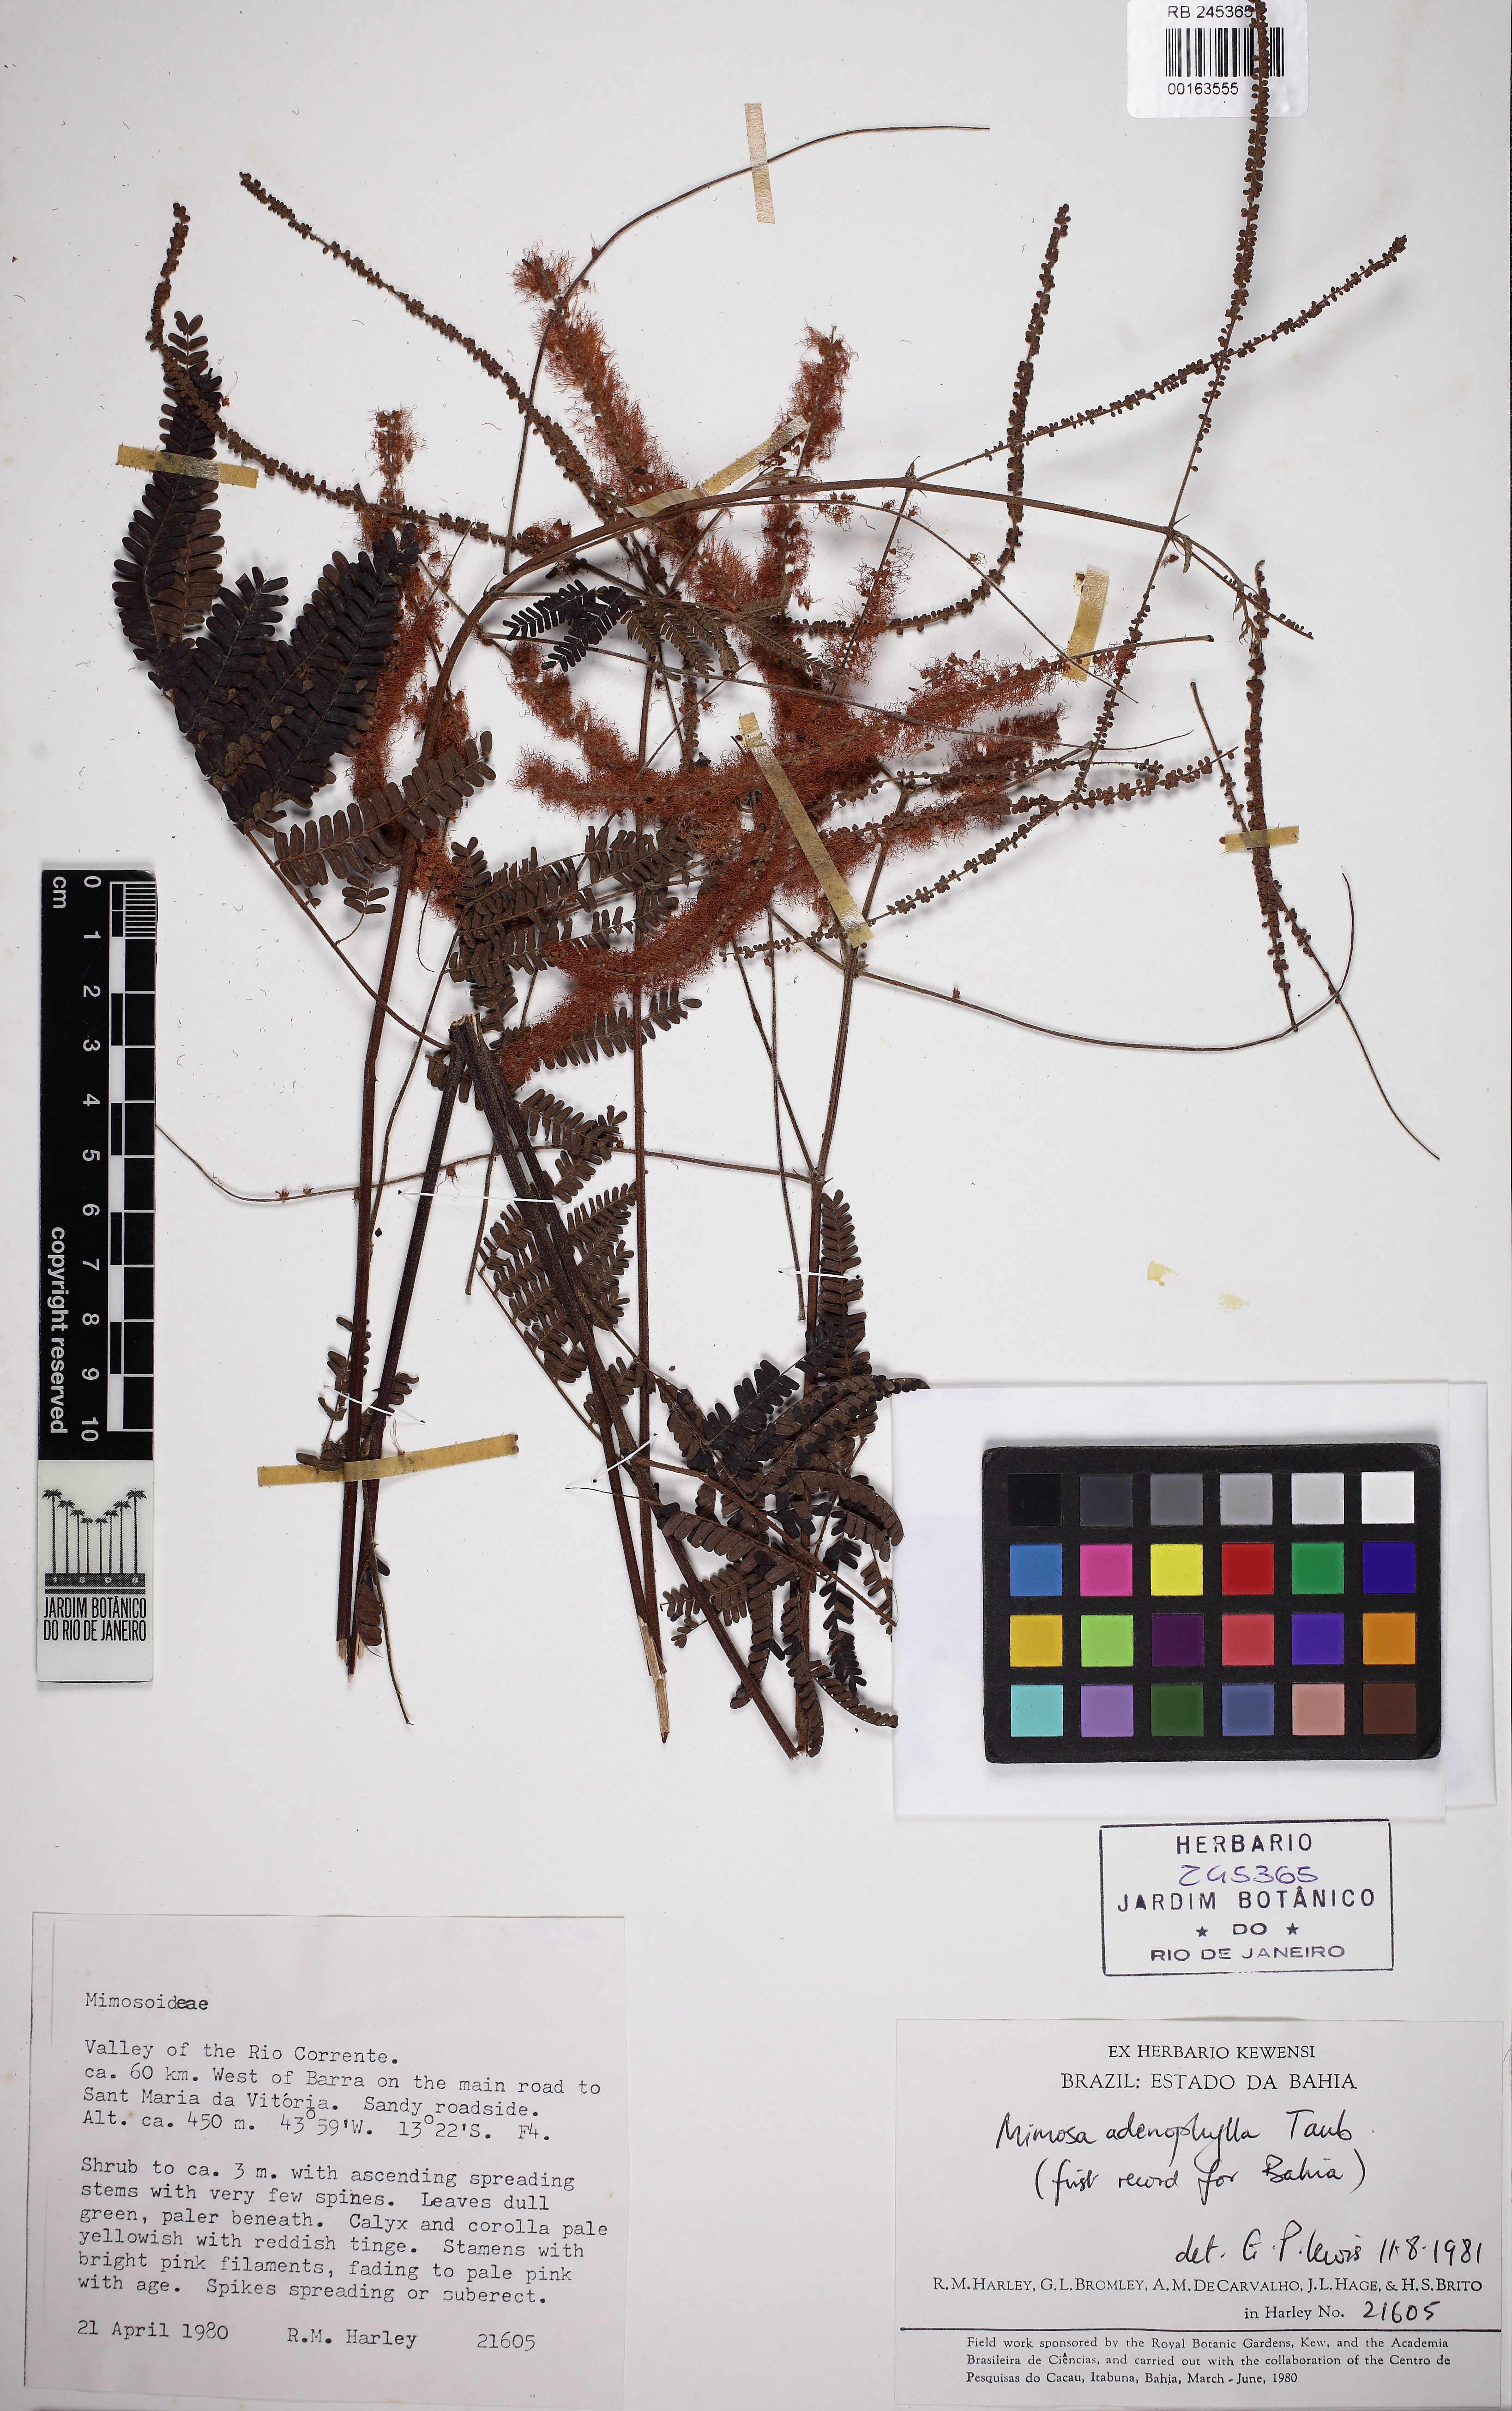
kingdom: Plantae
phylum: Tracheophyta
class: Magnoliopsida
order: Fabales
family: Fabaceae
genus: Mimosa
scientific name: Mimosa pteridifolia
